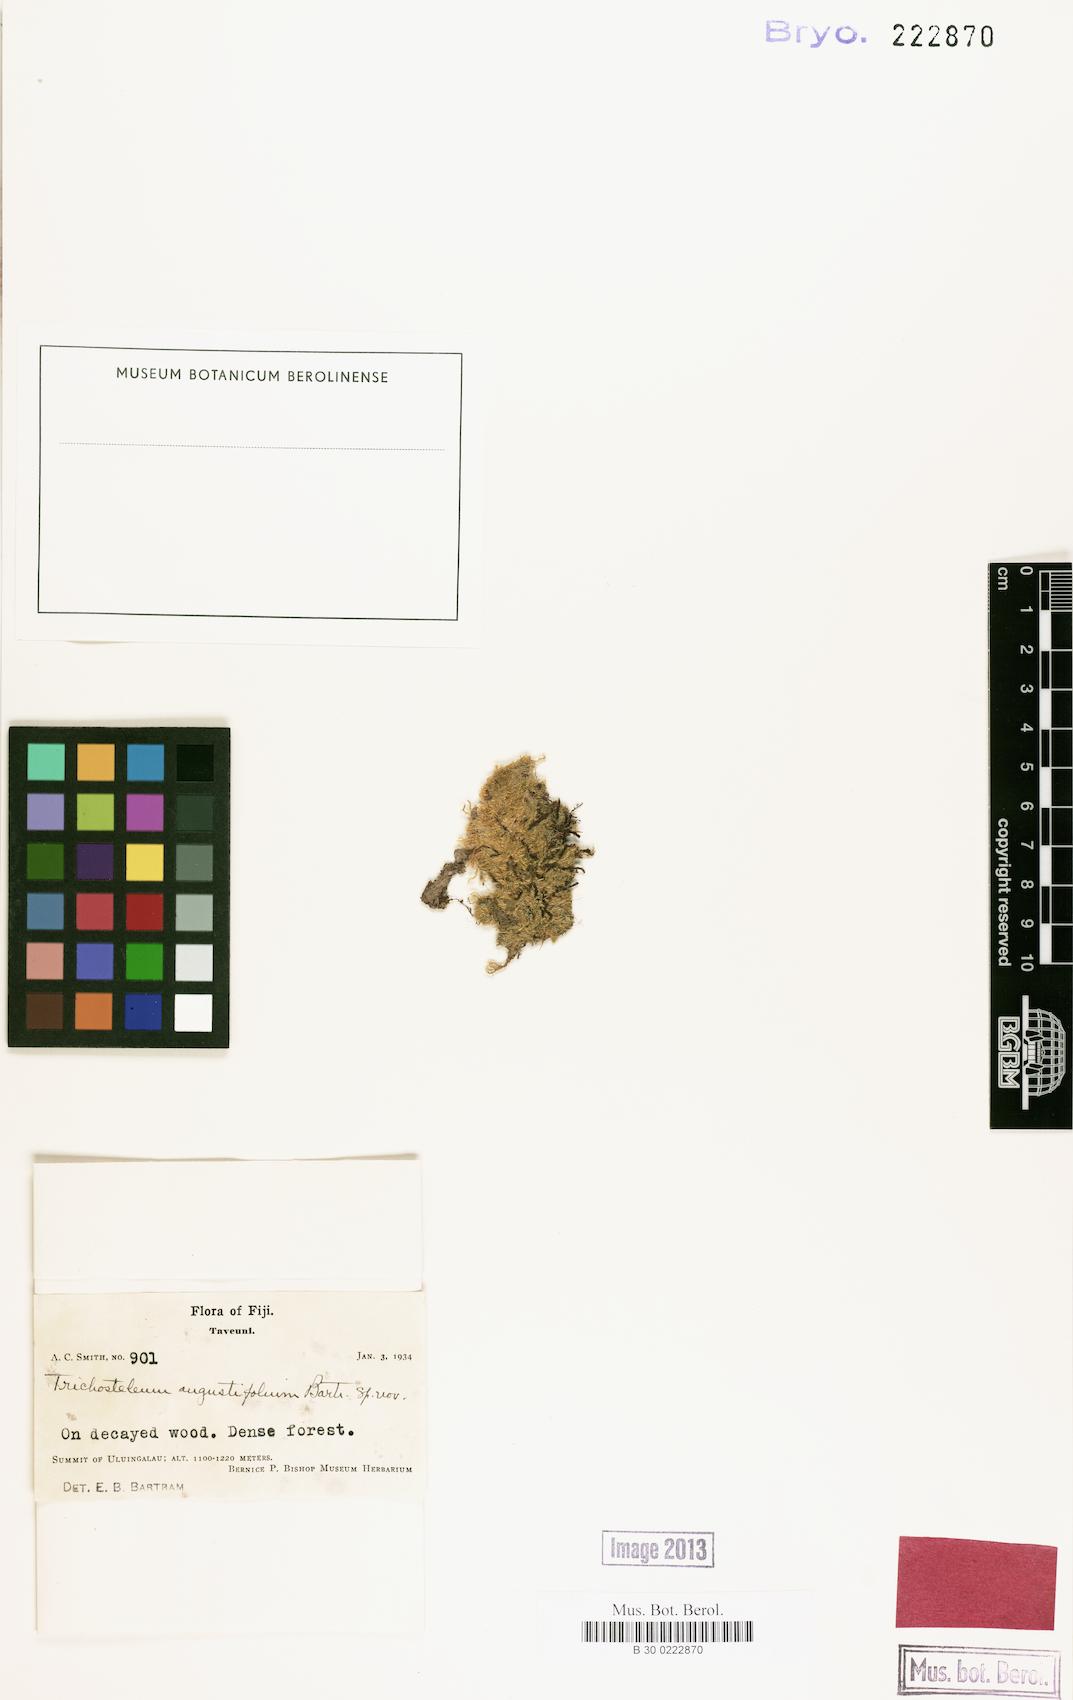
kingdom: Plantae
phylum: Bryophyta
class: Bryopsida
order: Hypnales
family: Sematophyllaceae
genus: Trichosteleum
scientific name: Trichosteleum angustifolium
